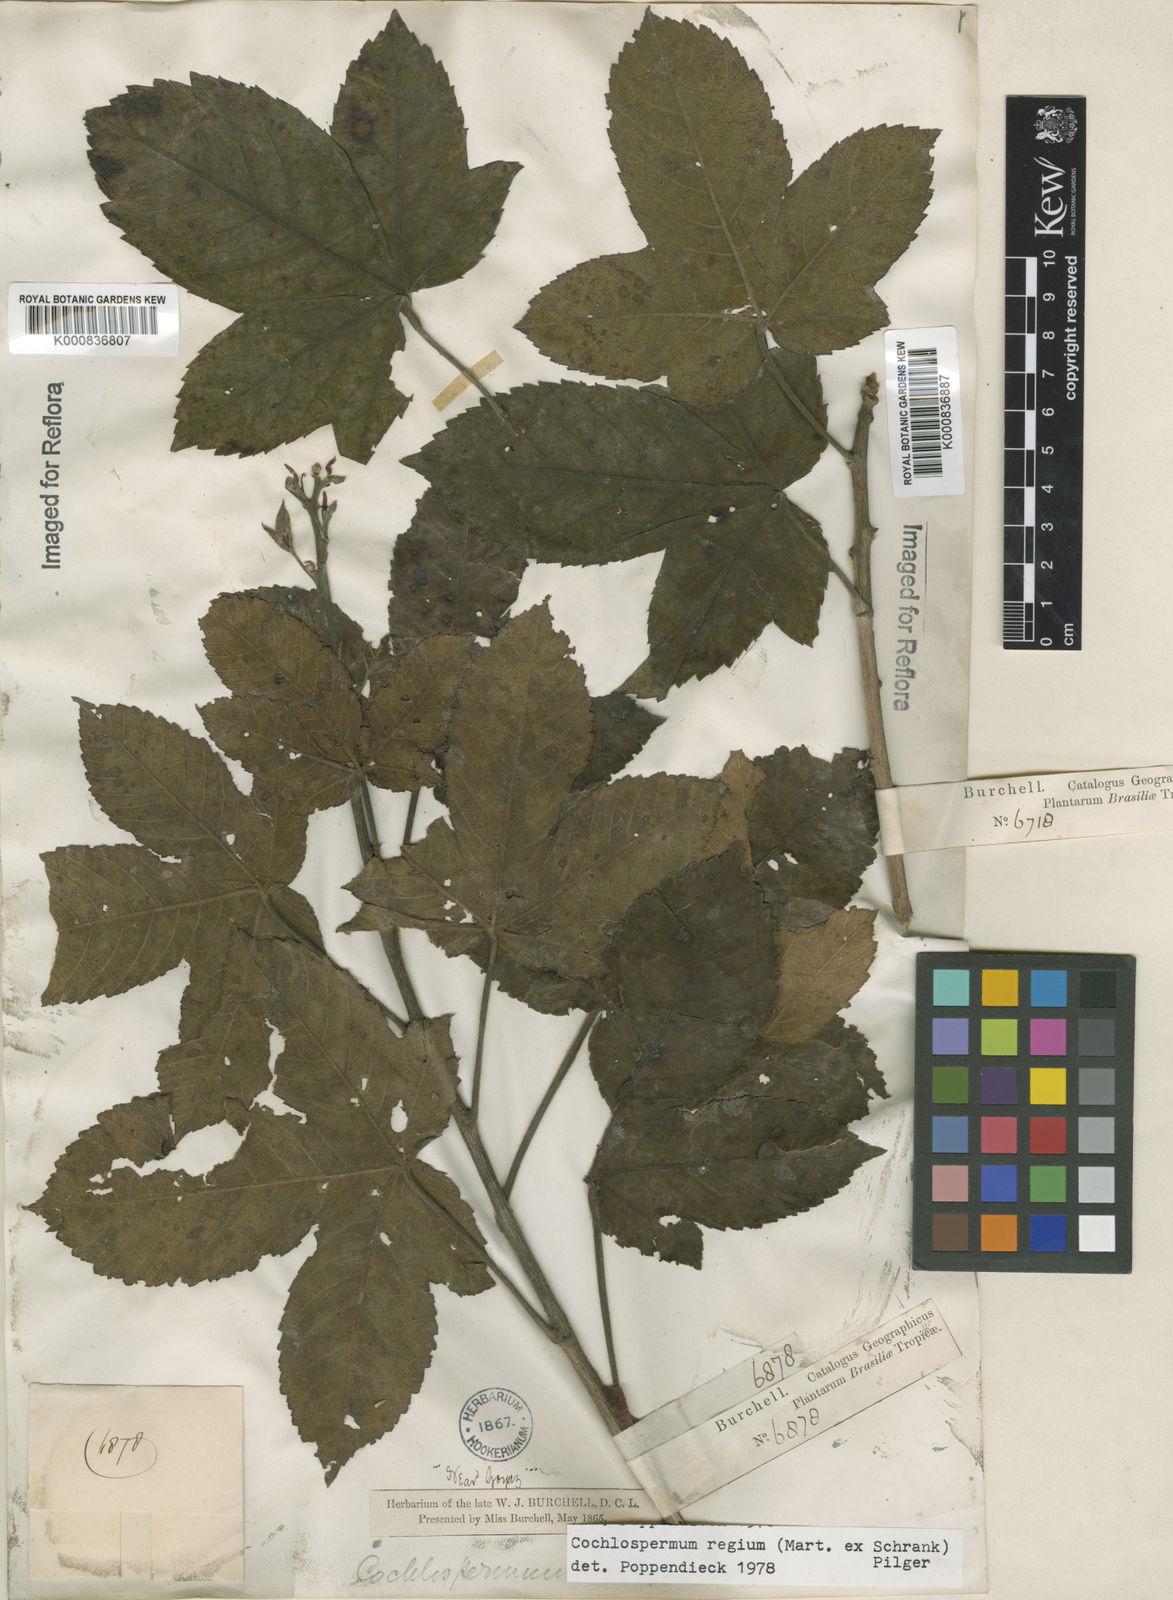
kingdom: Plantae
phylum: Tracheophyta
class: Magnoliopsida
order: Malvales
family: Cochlospermaceae
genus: Cochlospermum
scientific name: Cochlospermum regium
